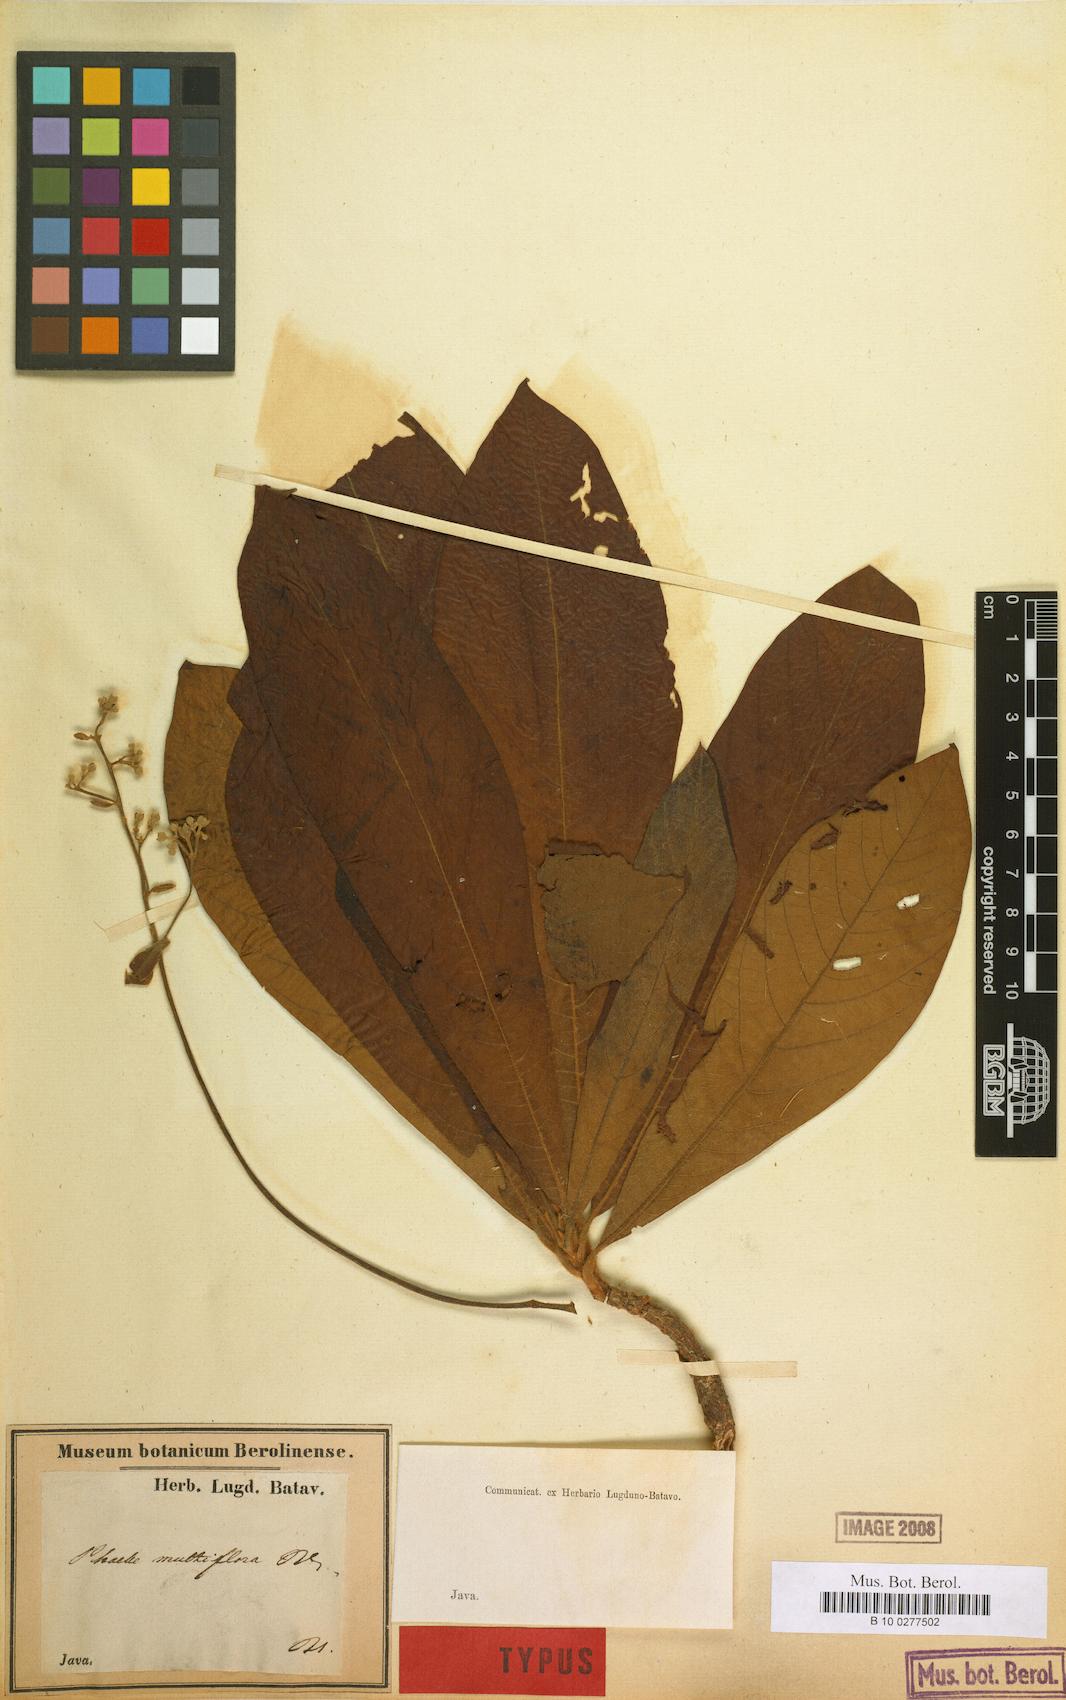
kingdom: Plantae
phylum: Tracheophyta
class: Magnoliopsida
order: Laurales
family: Lauraceae
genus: Phoebe
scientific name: Phoebe cuneata
